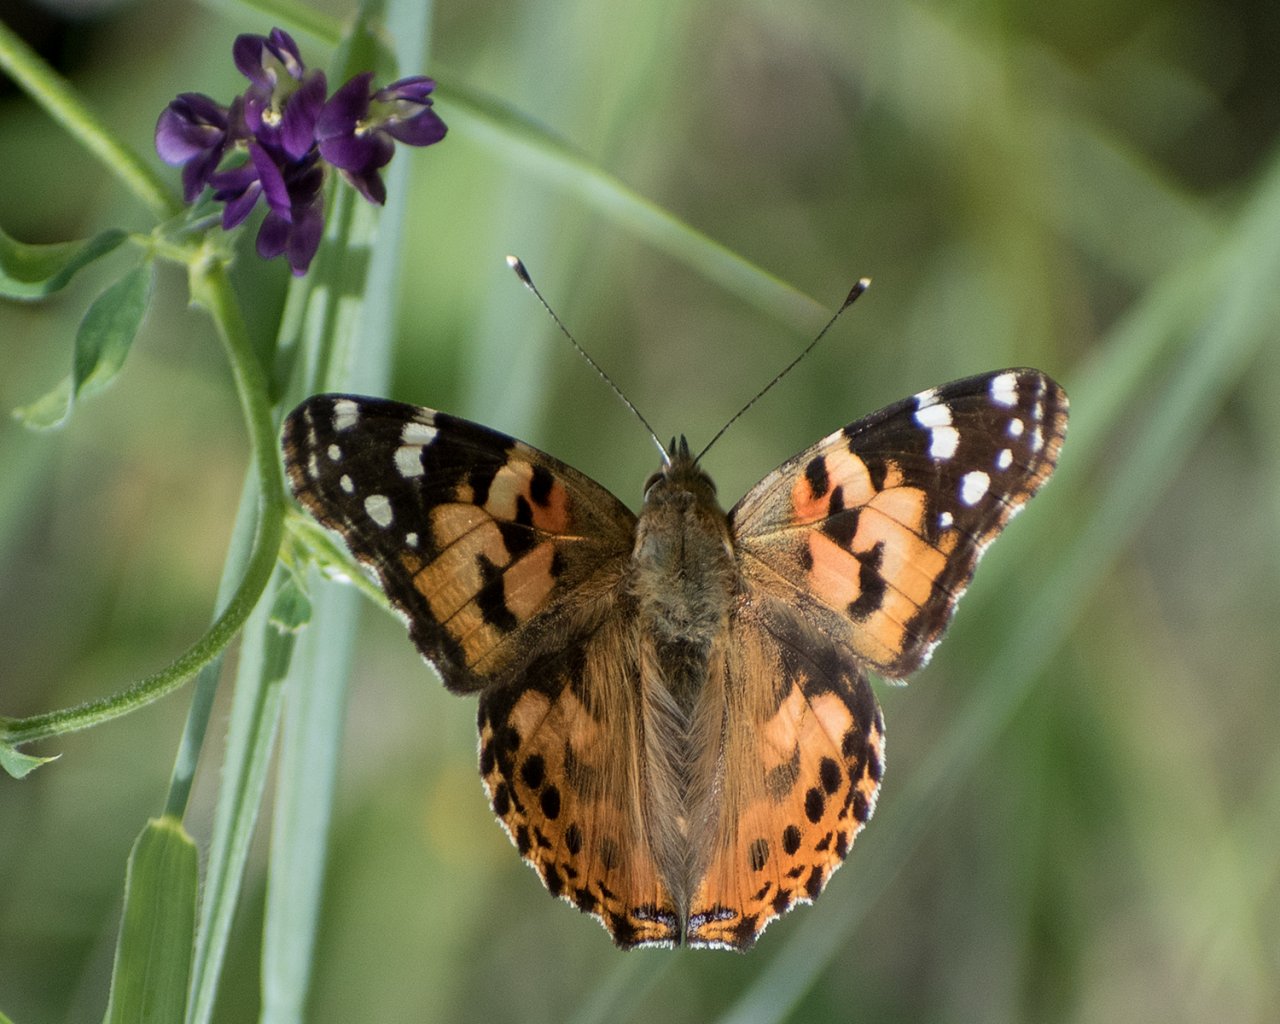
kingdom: Animalia
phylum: Arthropoda
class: Insecta
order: Lepidoptera
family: Nymphalidae
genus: Vanessa
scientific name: Vanessa cardui
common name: Painted Lady
